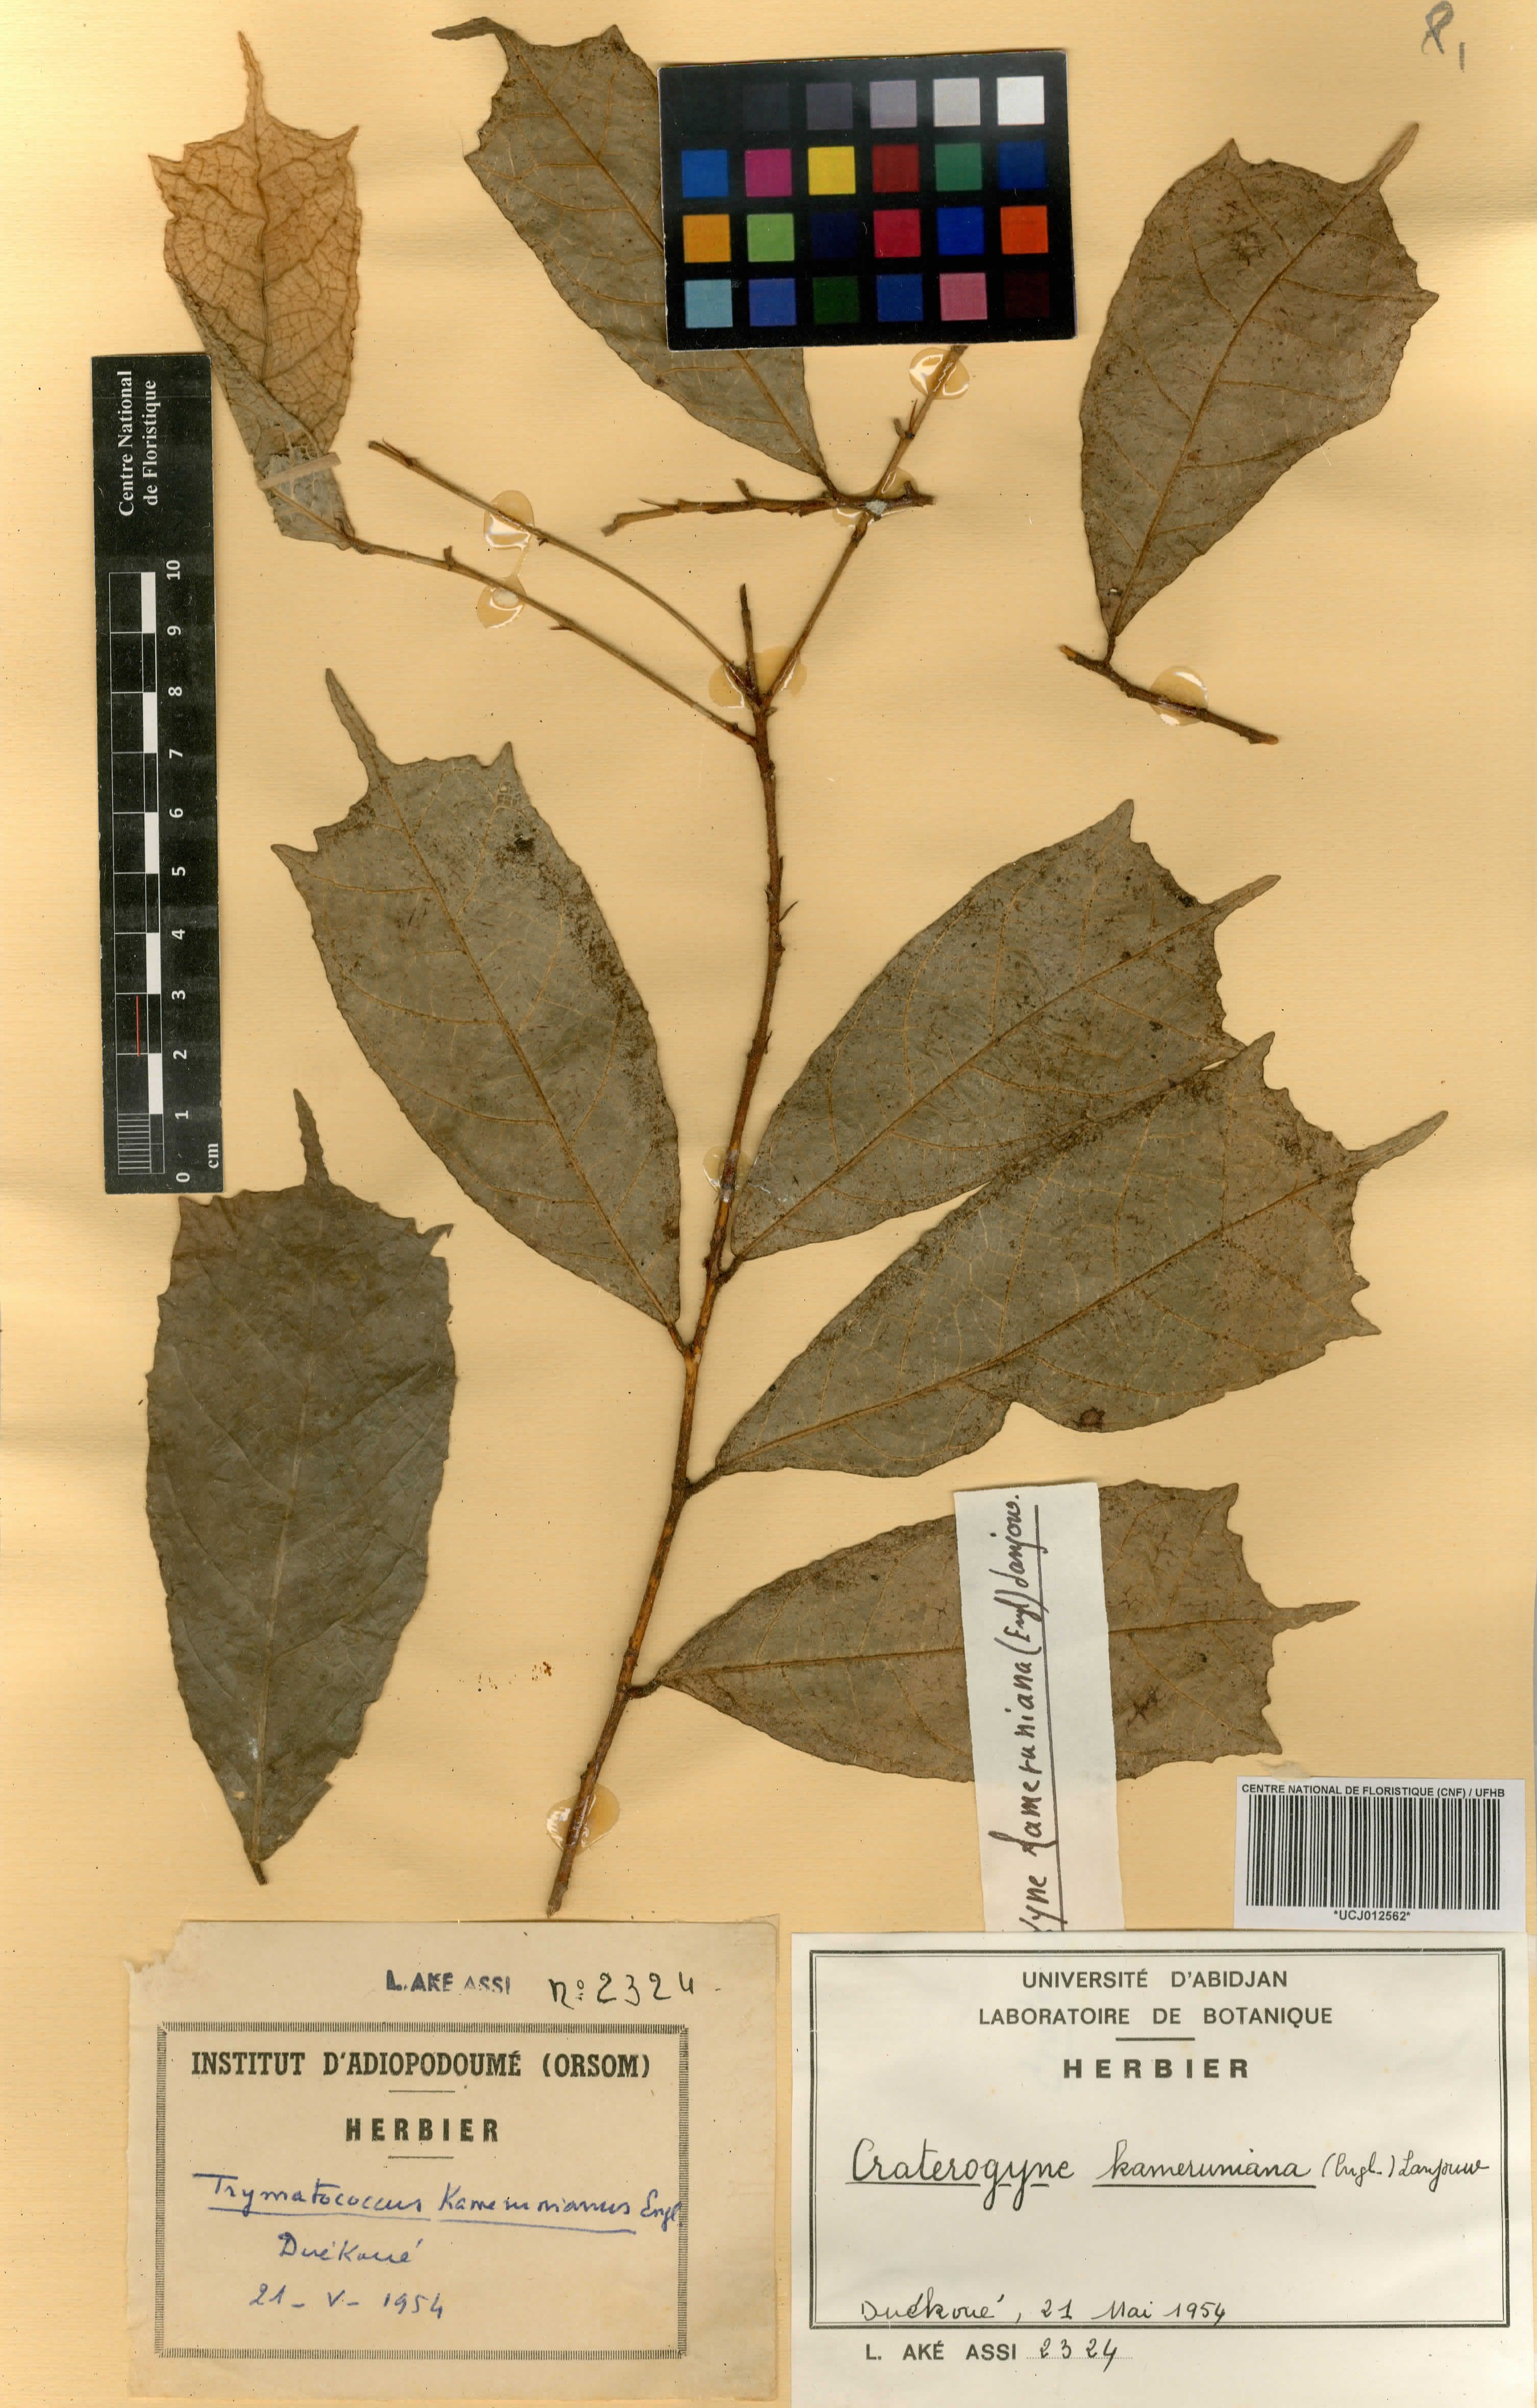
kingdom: Plantae
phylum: Tracheophyta
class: Magnoliopsida
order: Rosales
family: Moraceae
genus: Dorstenia
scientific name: Dorstenia kameruniana
